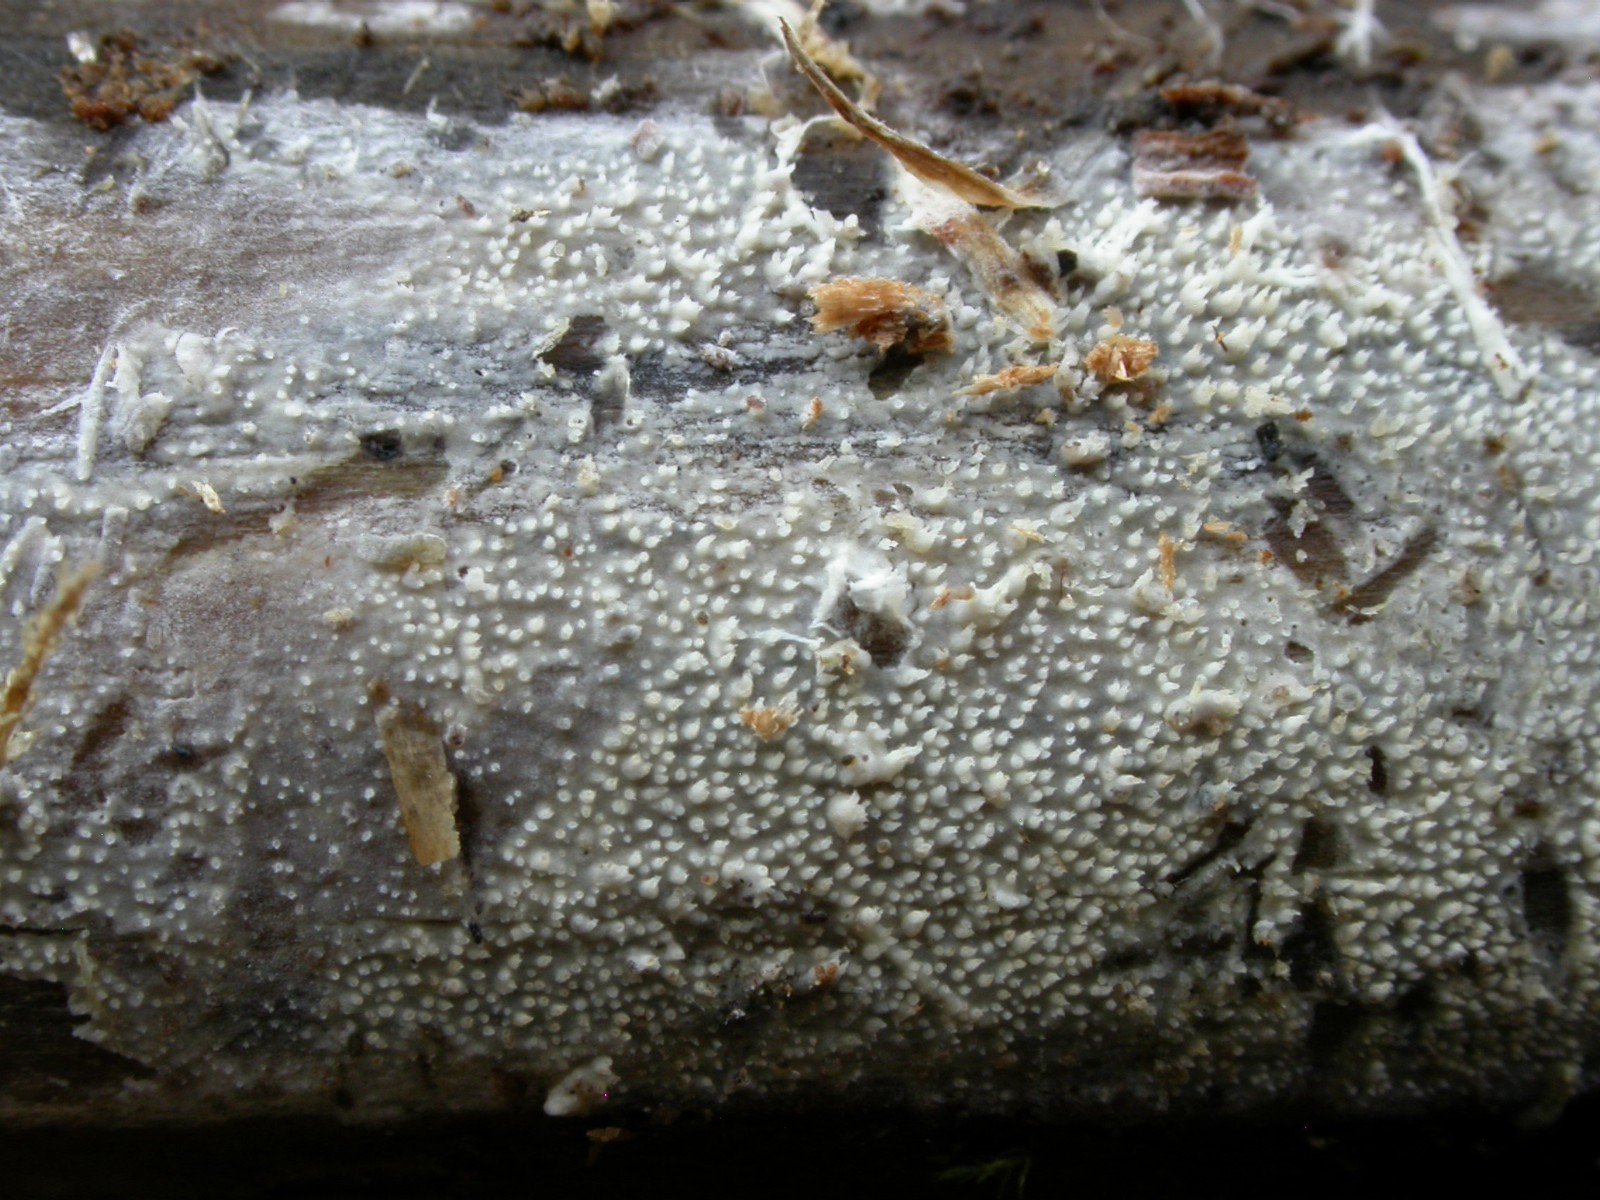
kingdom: Fungi
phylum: Basidiomycota
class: Agaricomycetes
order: Hymenochaetales
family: Rickenellaceae
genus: Resinicium
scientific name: Resinicium bicolor
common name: almindelig vokstand
